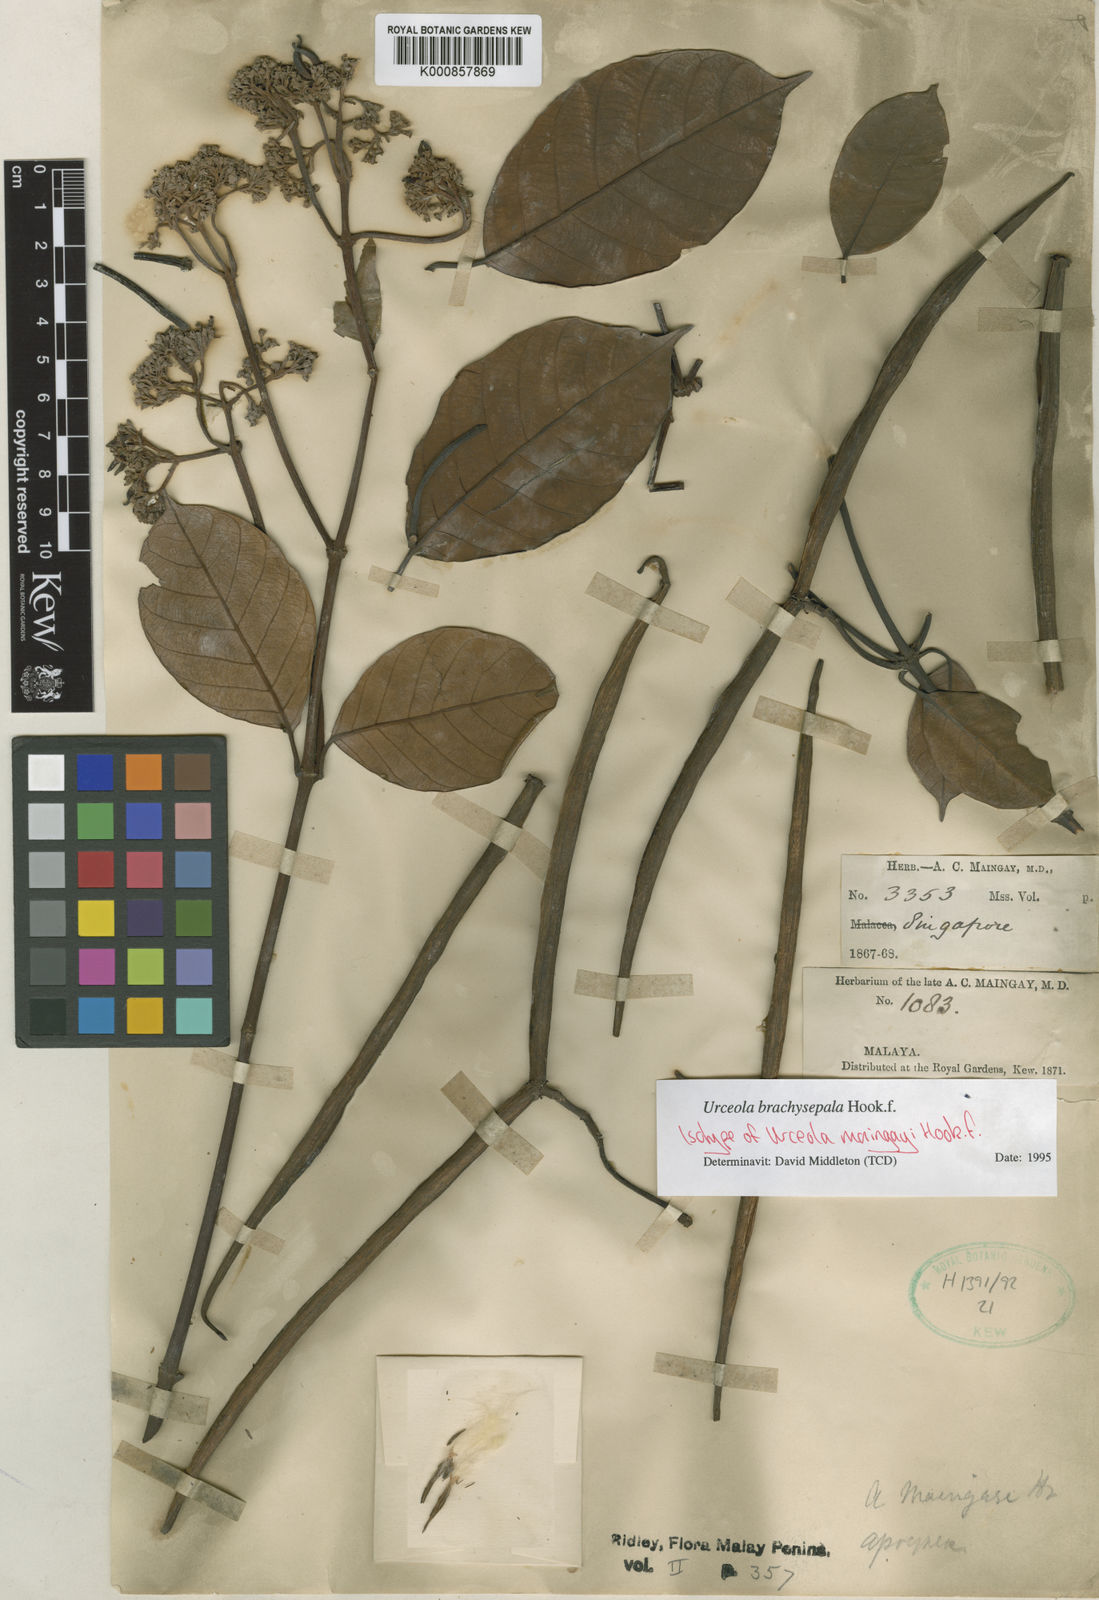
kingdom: Plantae
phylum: Tracheophyta
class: Magnoliopsida
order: Gentianales
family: Apocynaceae
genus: Urceola
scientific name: Urceola brachysepala
